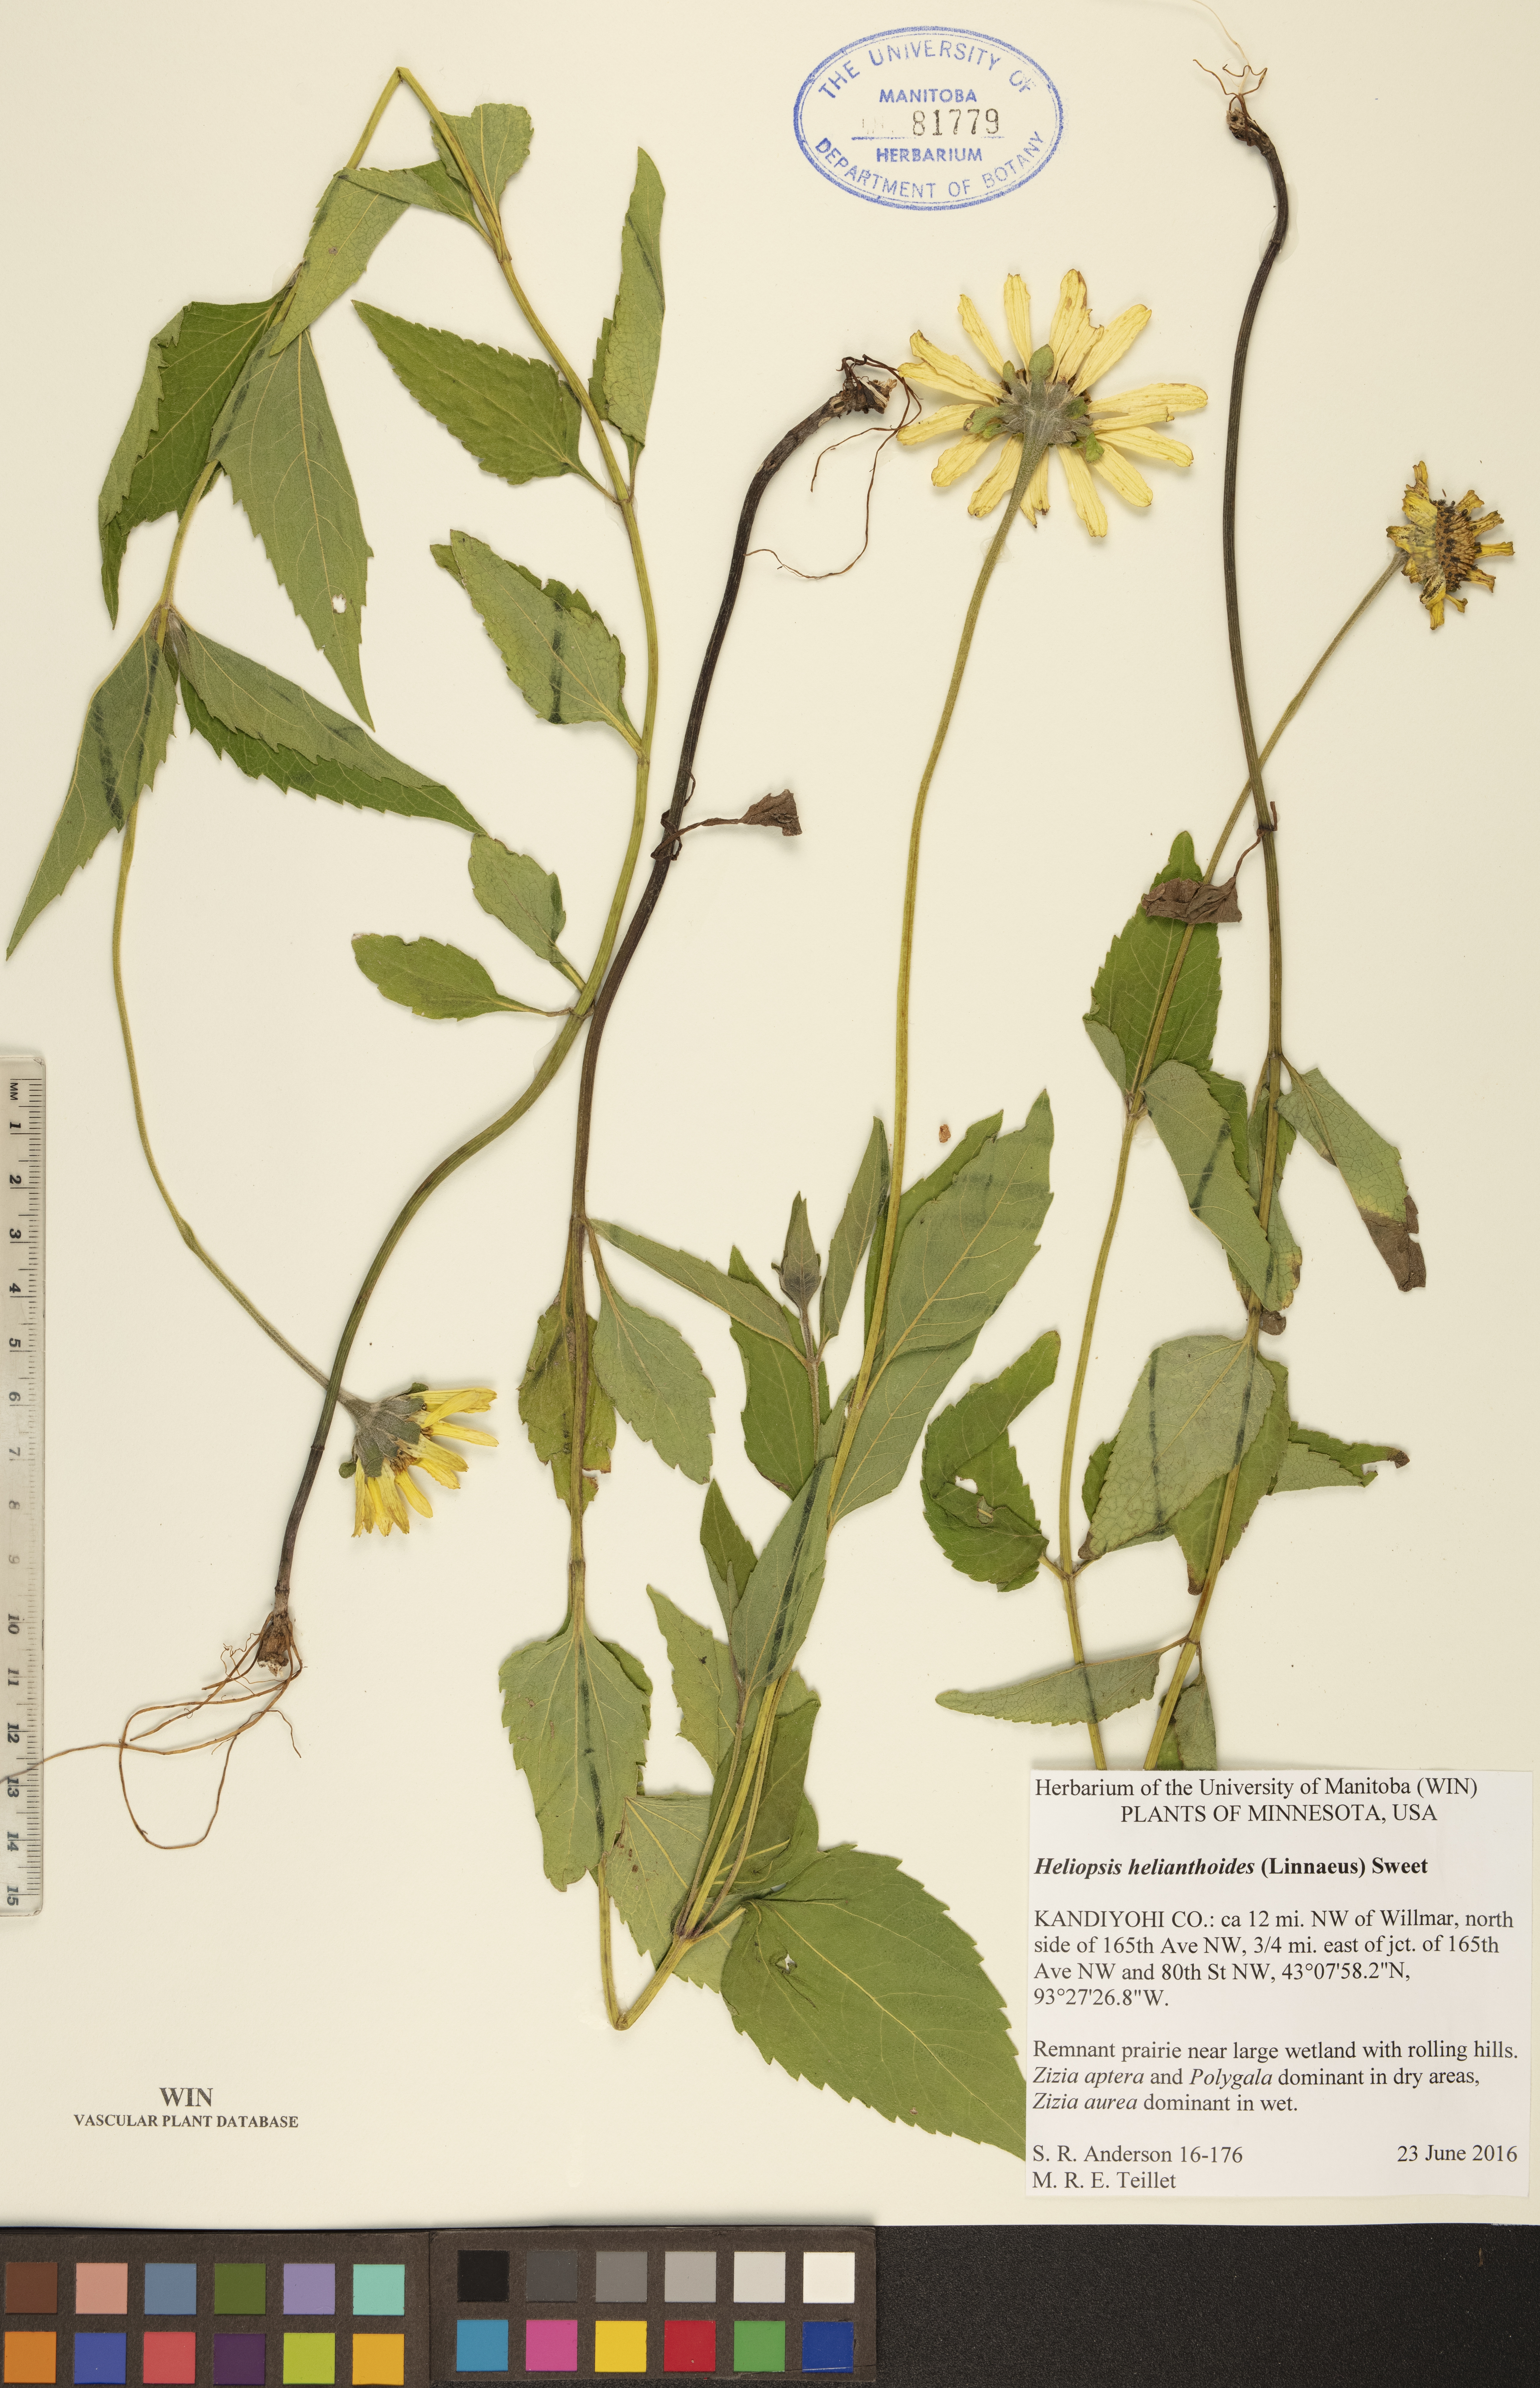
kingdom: Plantae
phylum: Tracheophyta
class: Magnoliopsida
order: Asterales
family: Asteraceae
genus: Heliopsis
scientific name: Heliopsis helianthoides
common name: False sunflower
